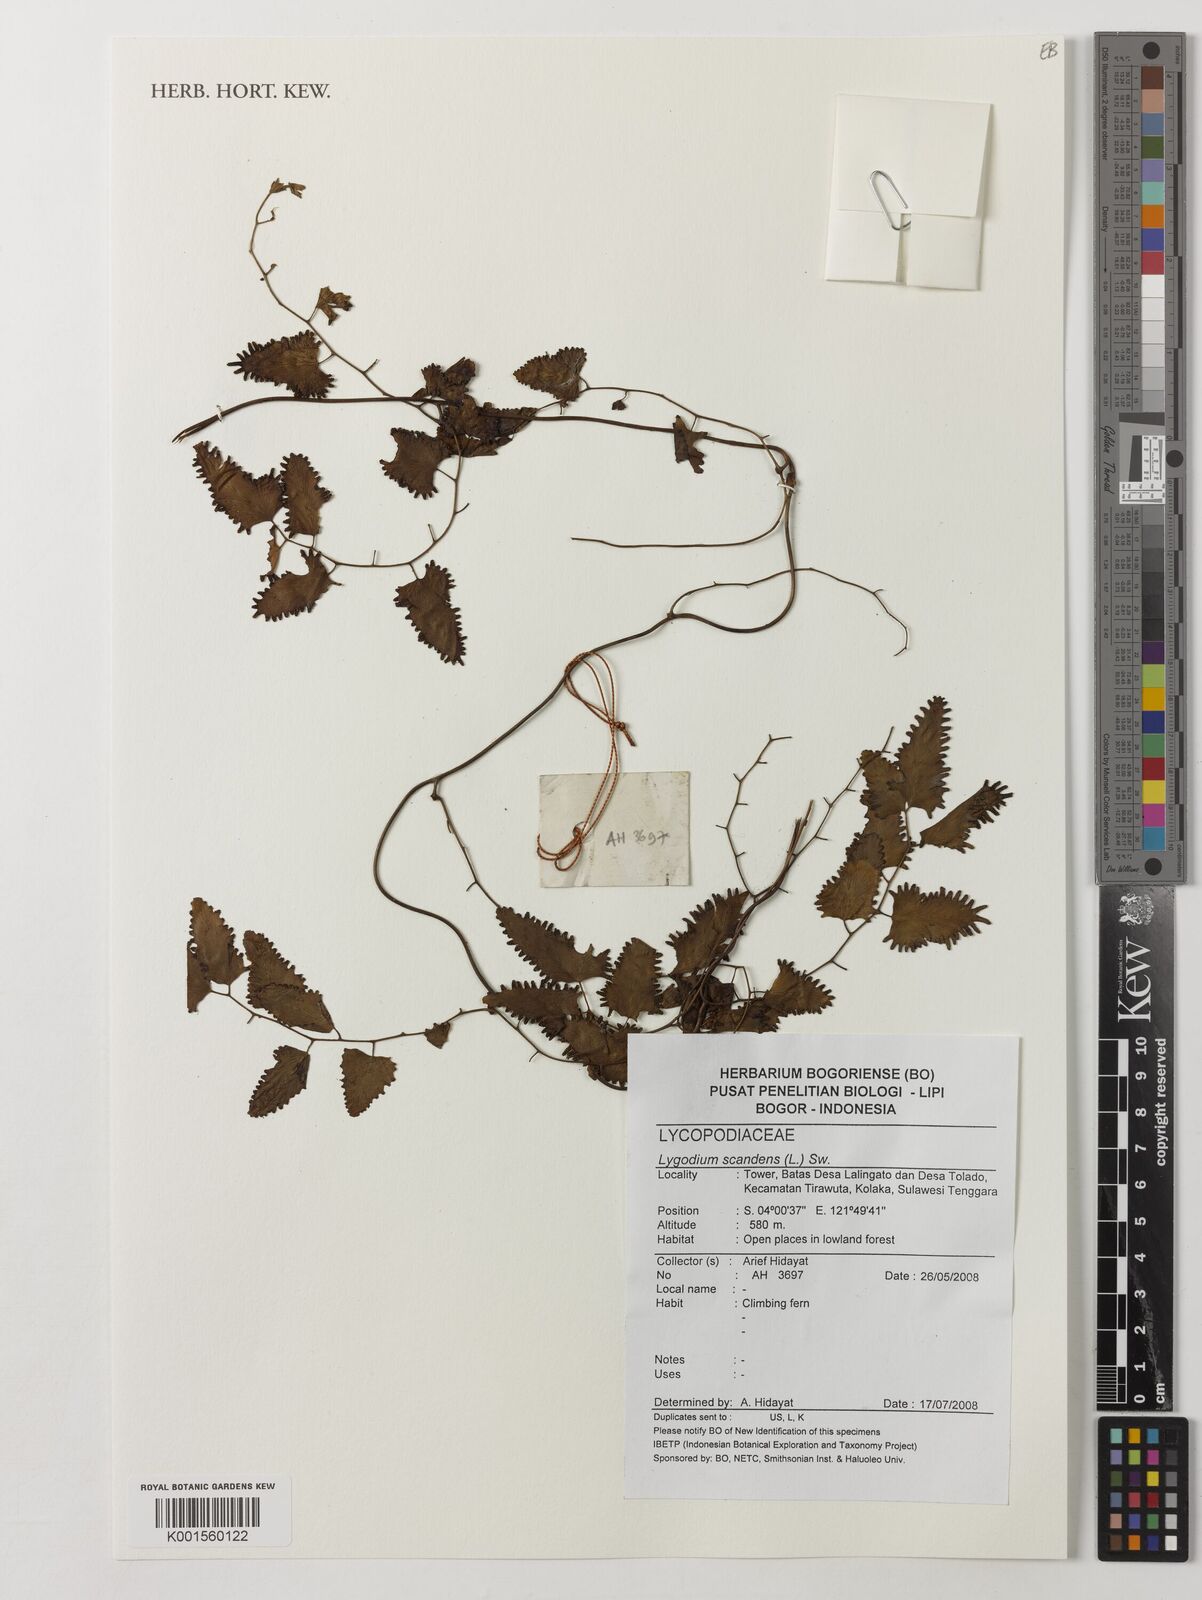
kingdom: Plantae
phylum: Tracheophyta
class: Polypodiopsida
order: Schizaeales
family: Lygodiaceae
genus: Lygodium
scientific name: Lygodium flexuosum
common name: Maidenhair creeper
